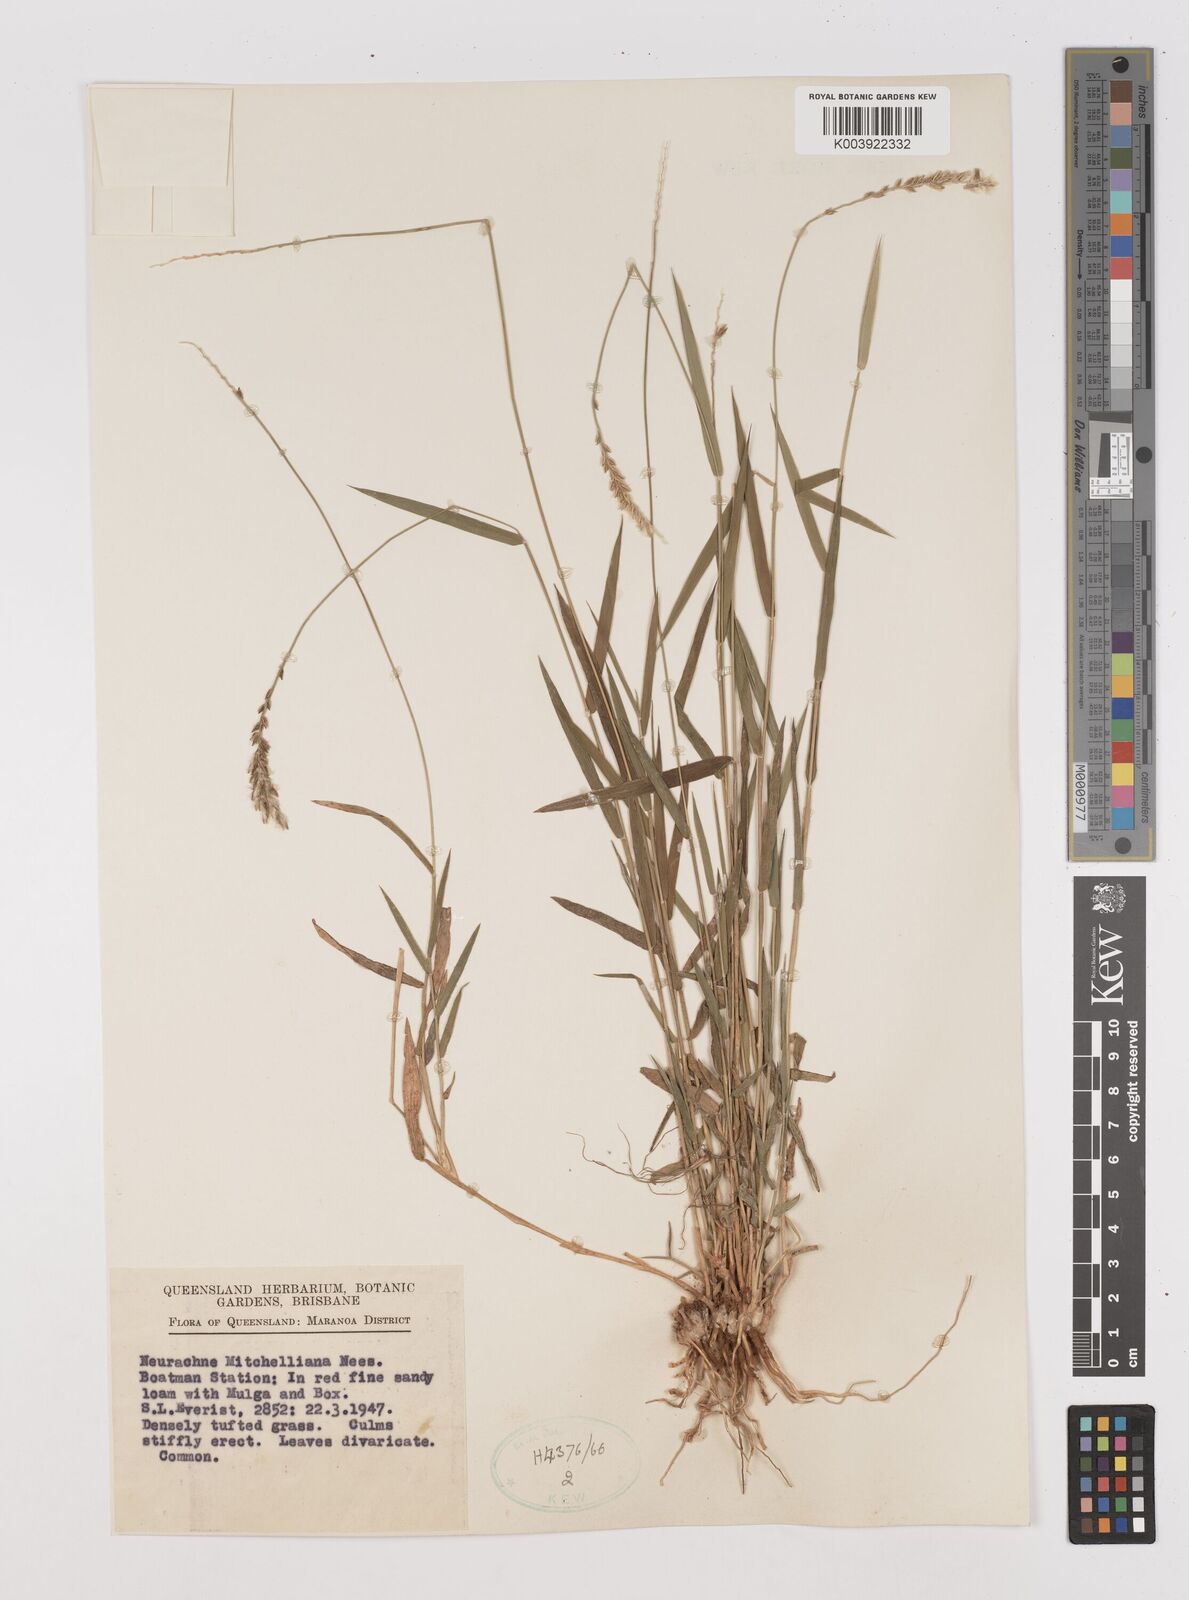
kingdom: Plantae
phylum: Tracheophyta
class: Liliopsida
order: Poales
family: Poaceae
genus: Thyridolepis
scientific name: Thyridolepis mitchelliana
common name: Rock tassel grass
